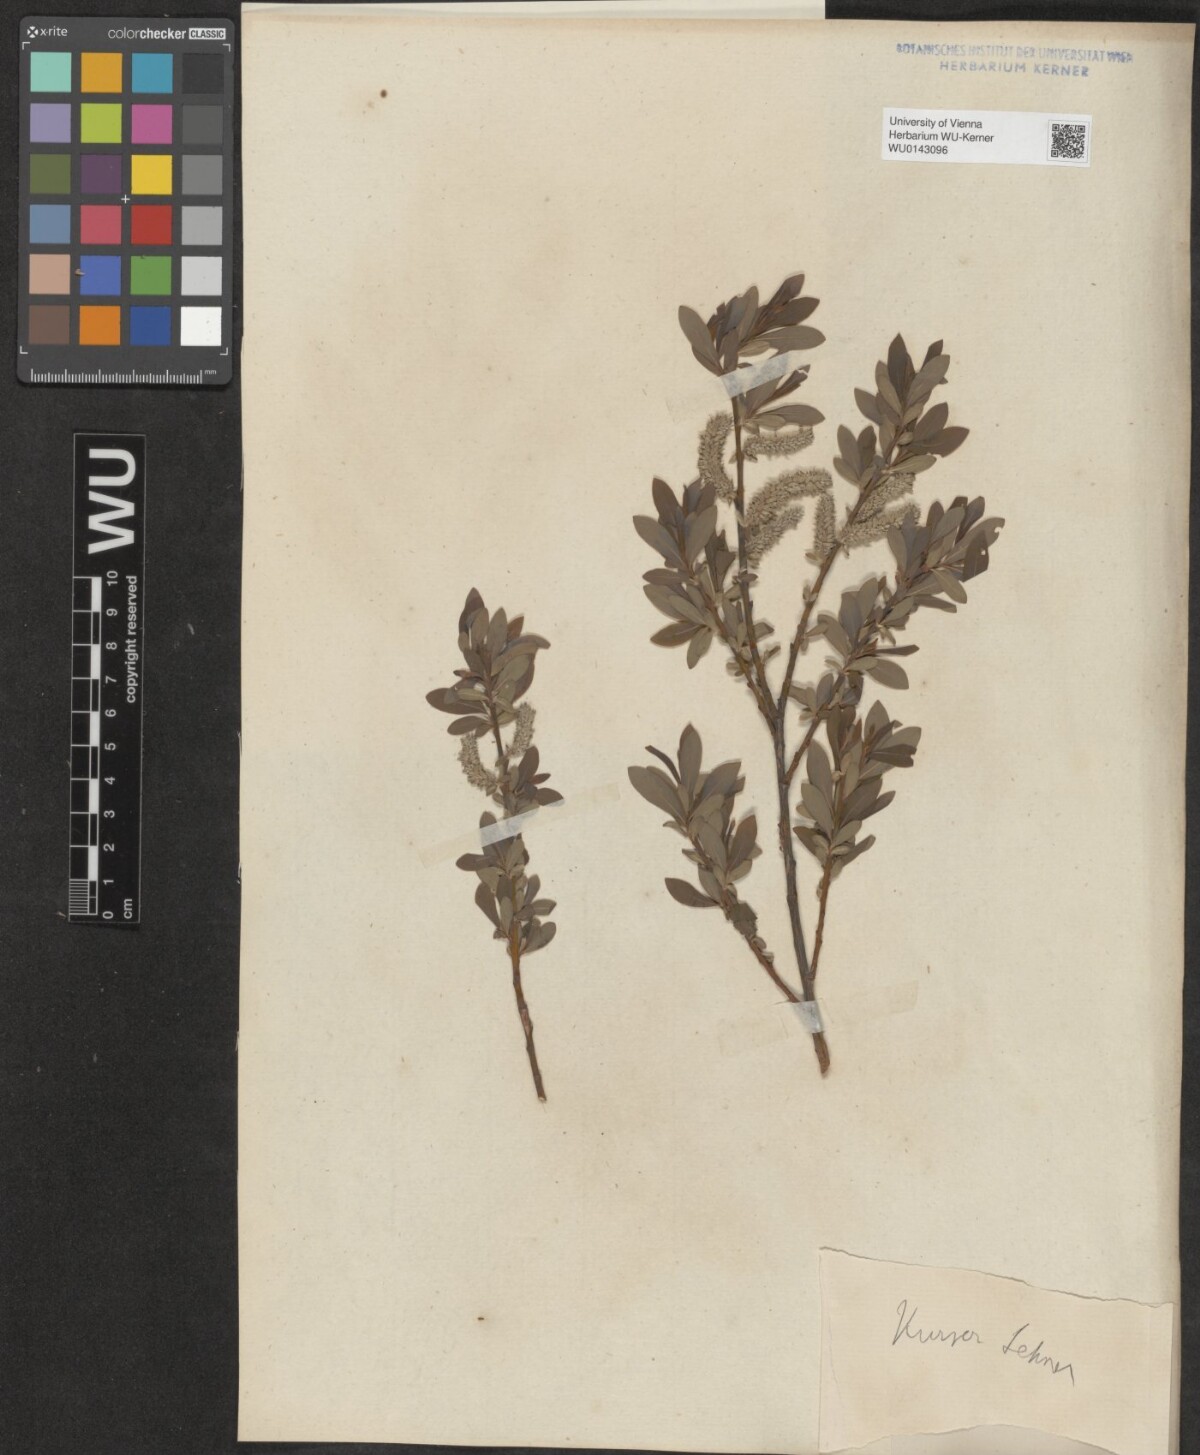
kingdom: Plantae
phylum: Tracheophyta
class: Magnoliopsida
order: Malpighiales
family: Salicaceae
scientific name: Salicaceae
